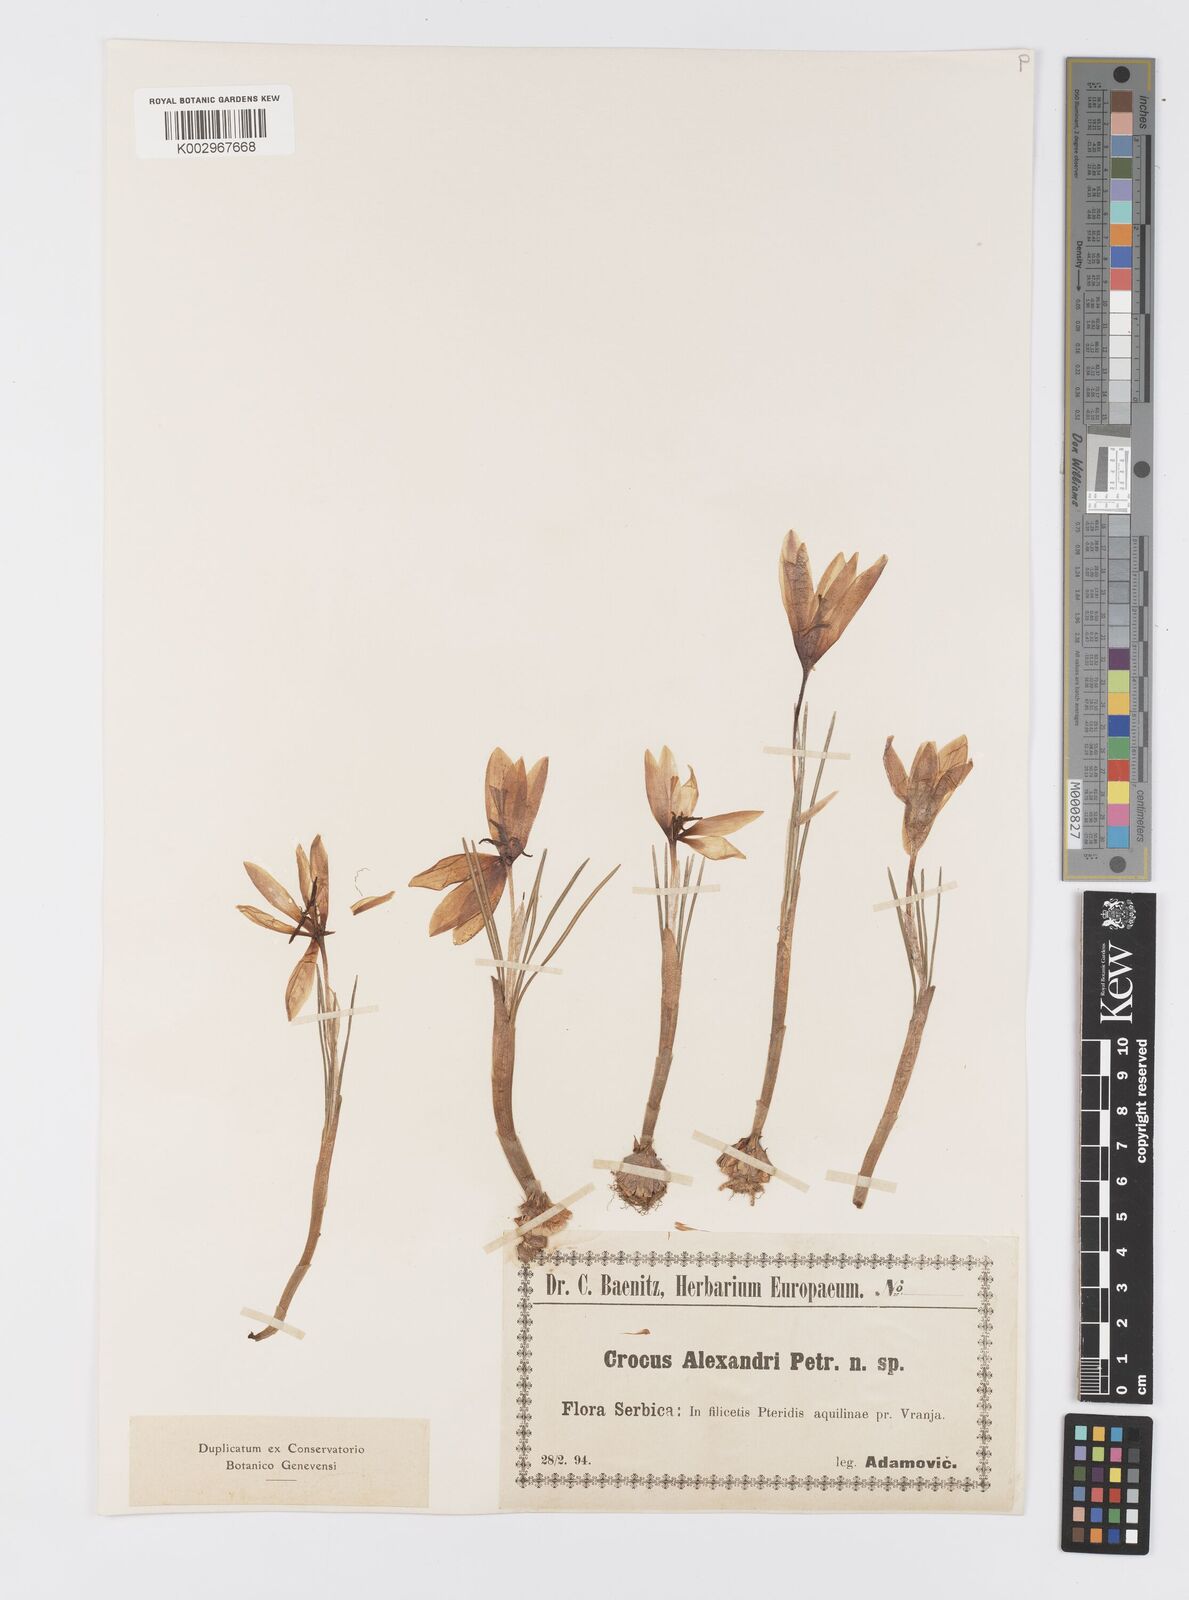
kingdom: Plantae
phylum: Tracheophyta
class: Liliopsida
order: Asparagales
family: Iridaceae
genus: Crocus
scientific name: Crocus alexandri
